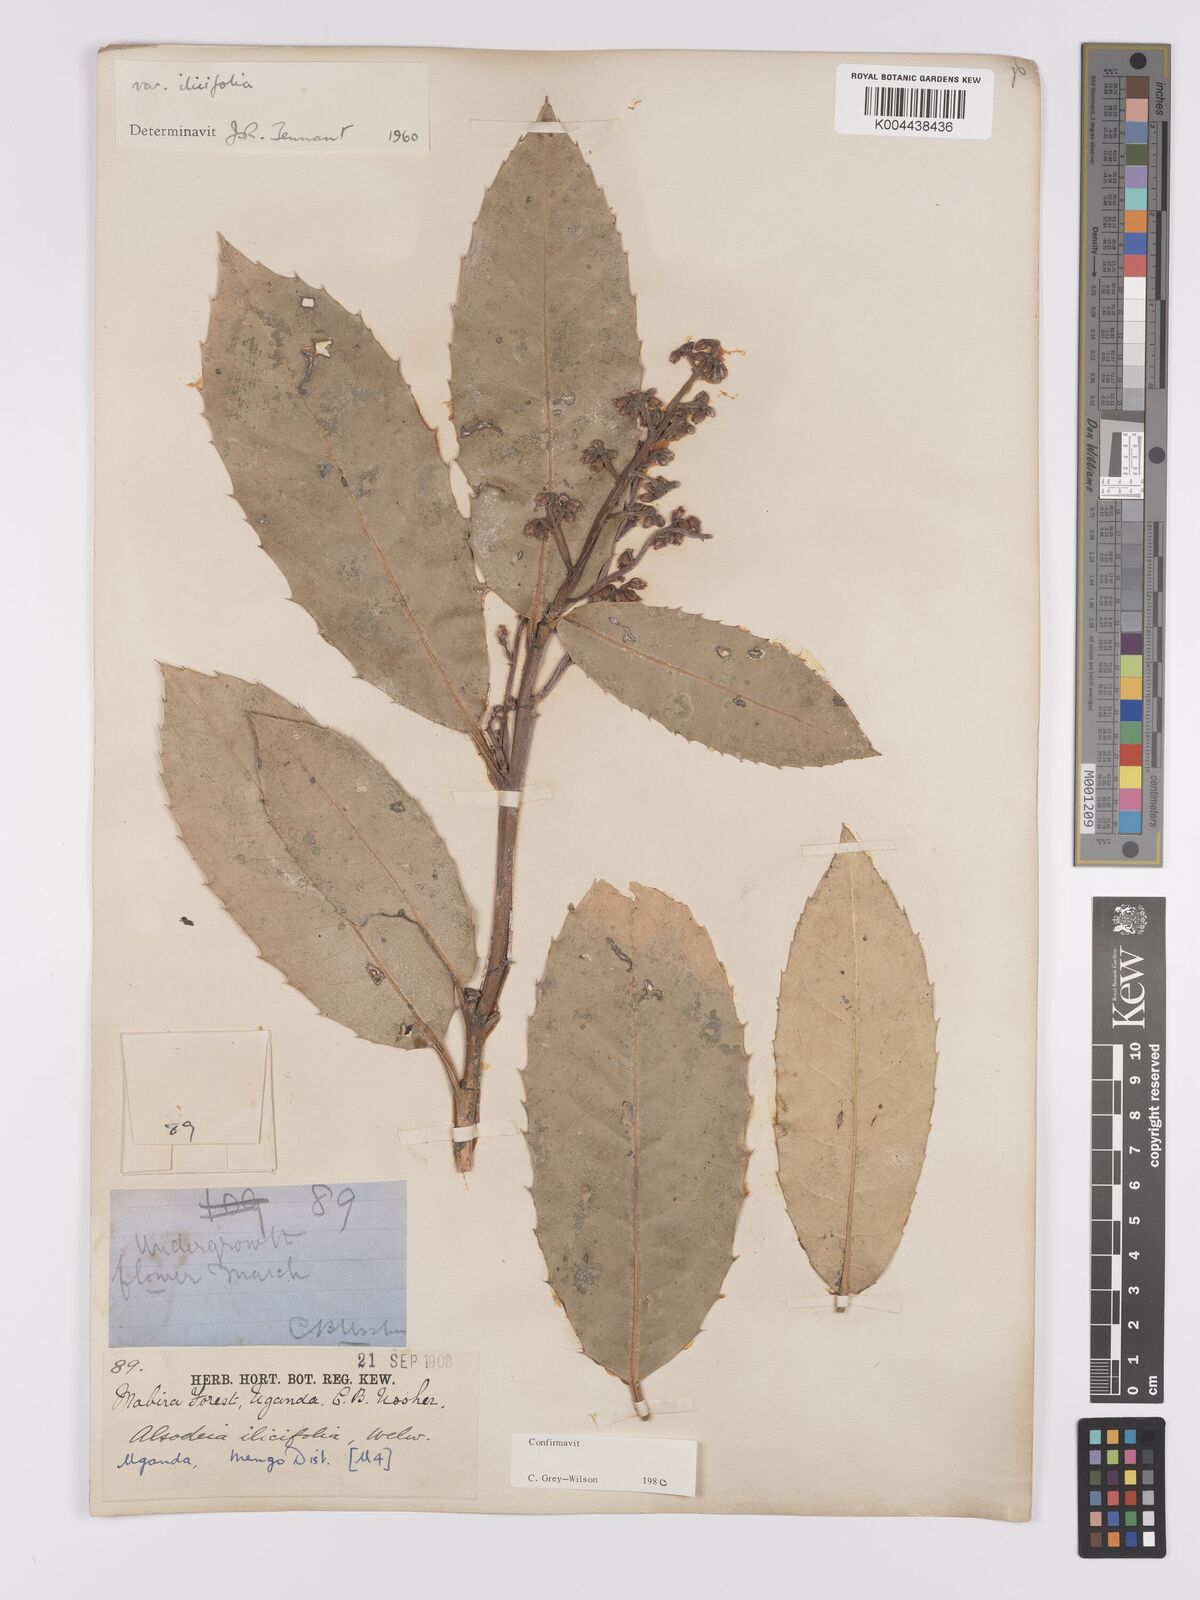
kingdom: Plantae
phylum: Tracheophyta
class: Magnoliopsida
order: Malpighiales
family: Violaceae
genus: Rinorea
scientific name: Rinorea ilicifolia
